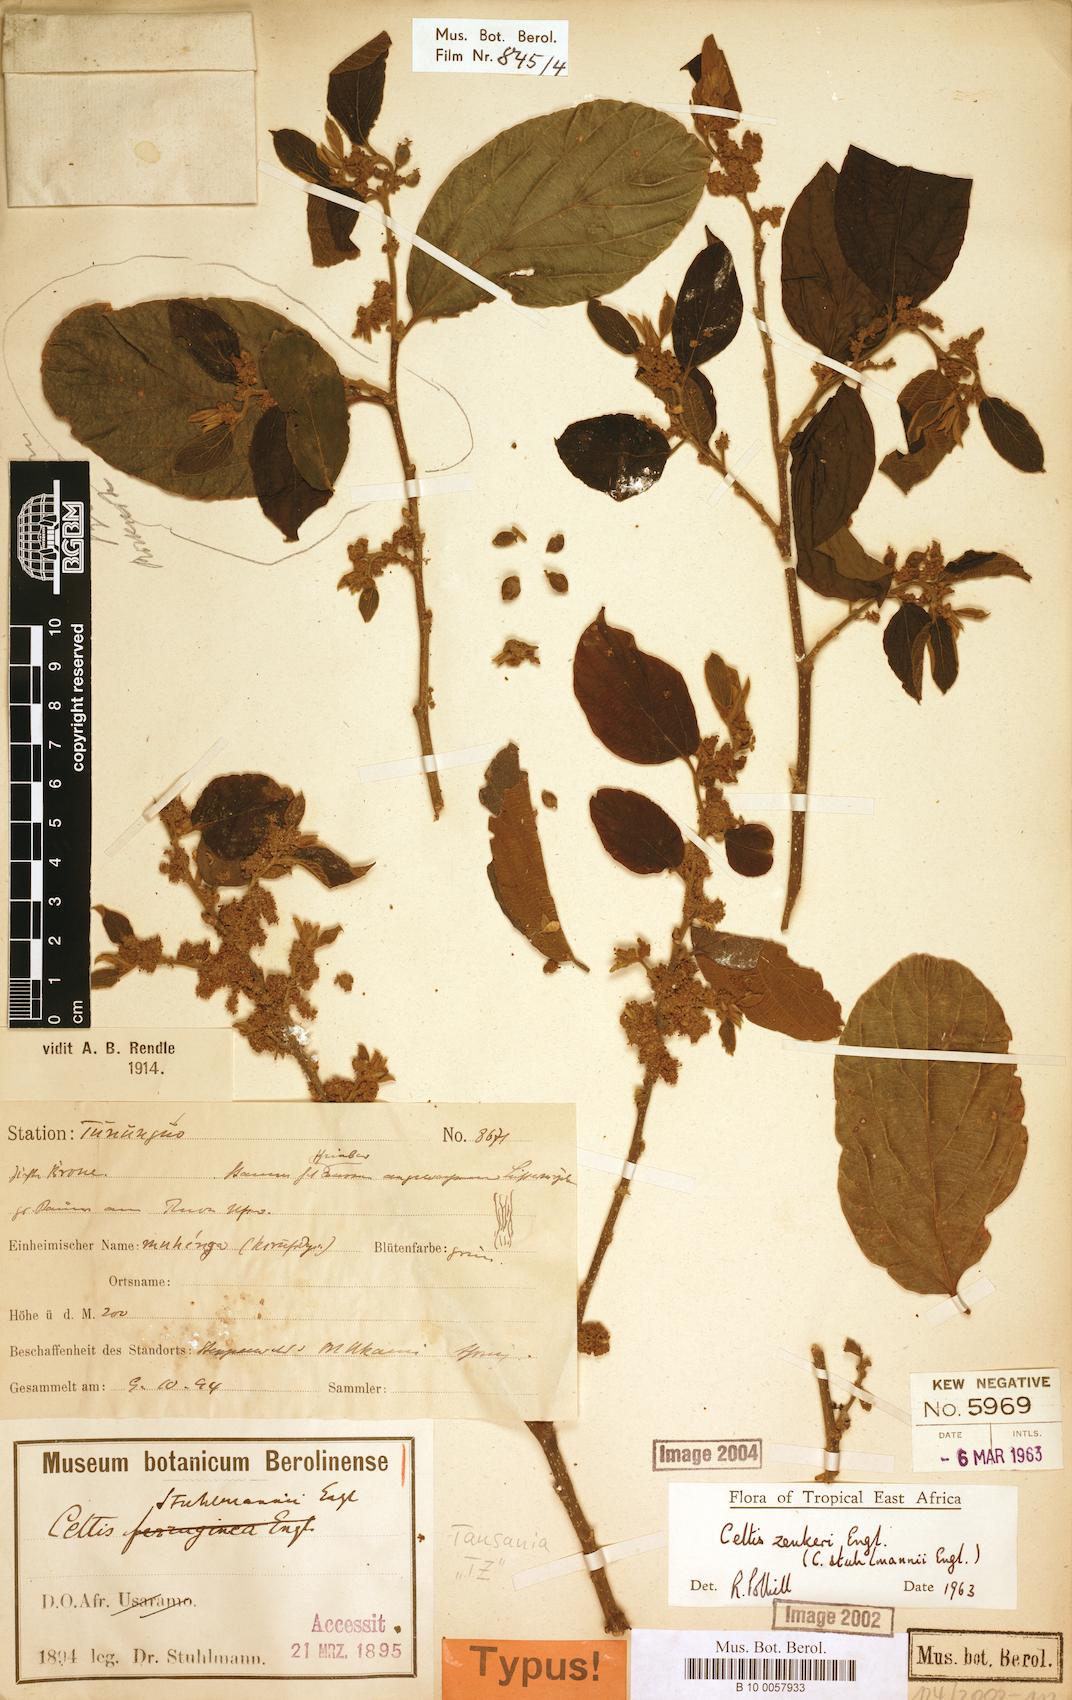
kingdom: Plantae
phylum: Tracheophyta
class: Magnoliopsida
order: Rosales
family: Cannabaceae
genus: Celtis
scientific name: Celtis zenkeri
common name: African celtis
